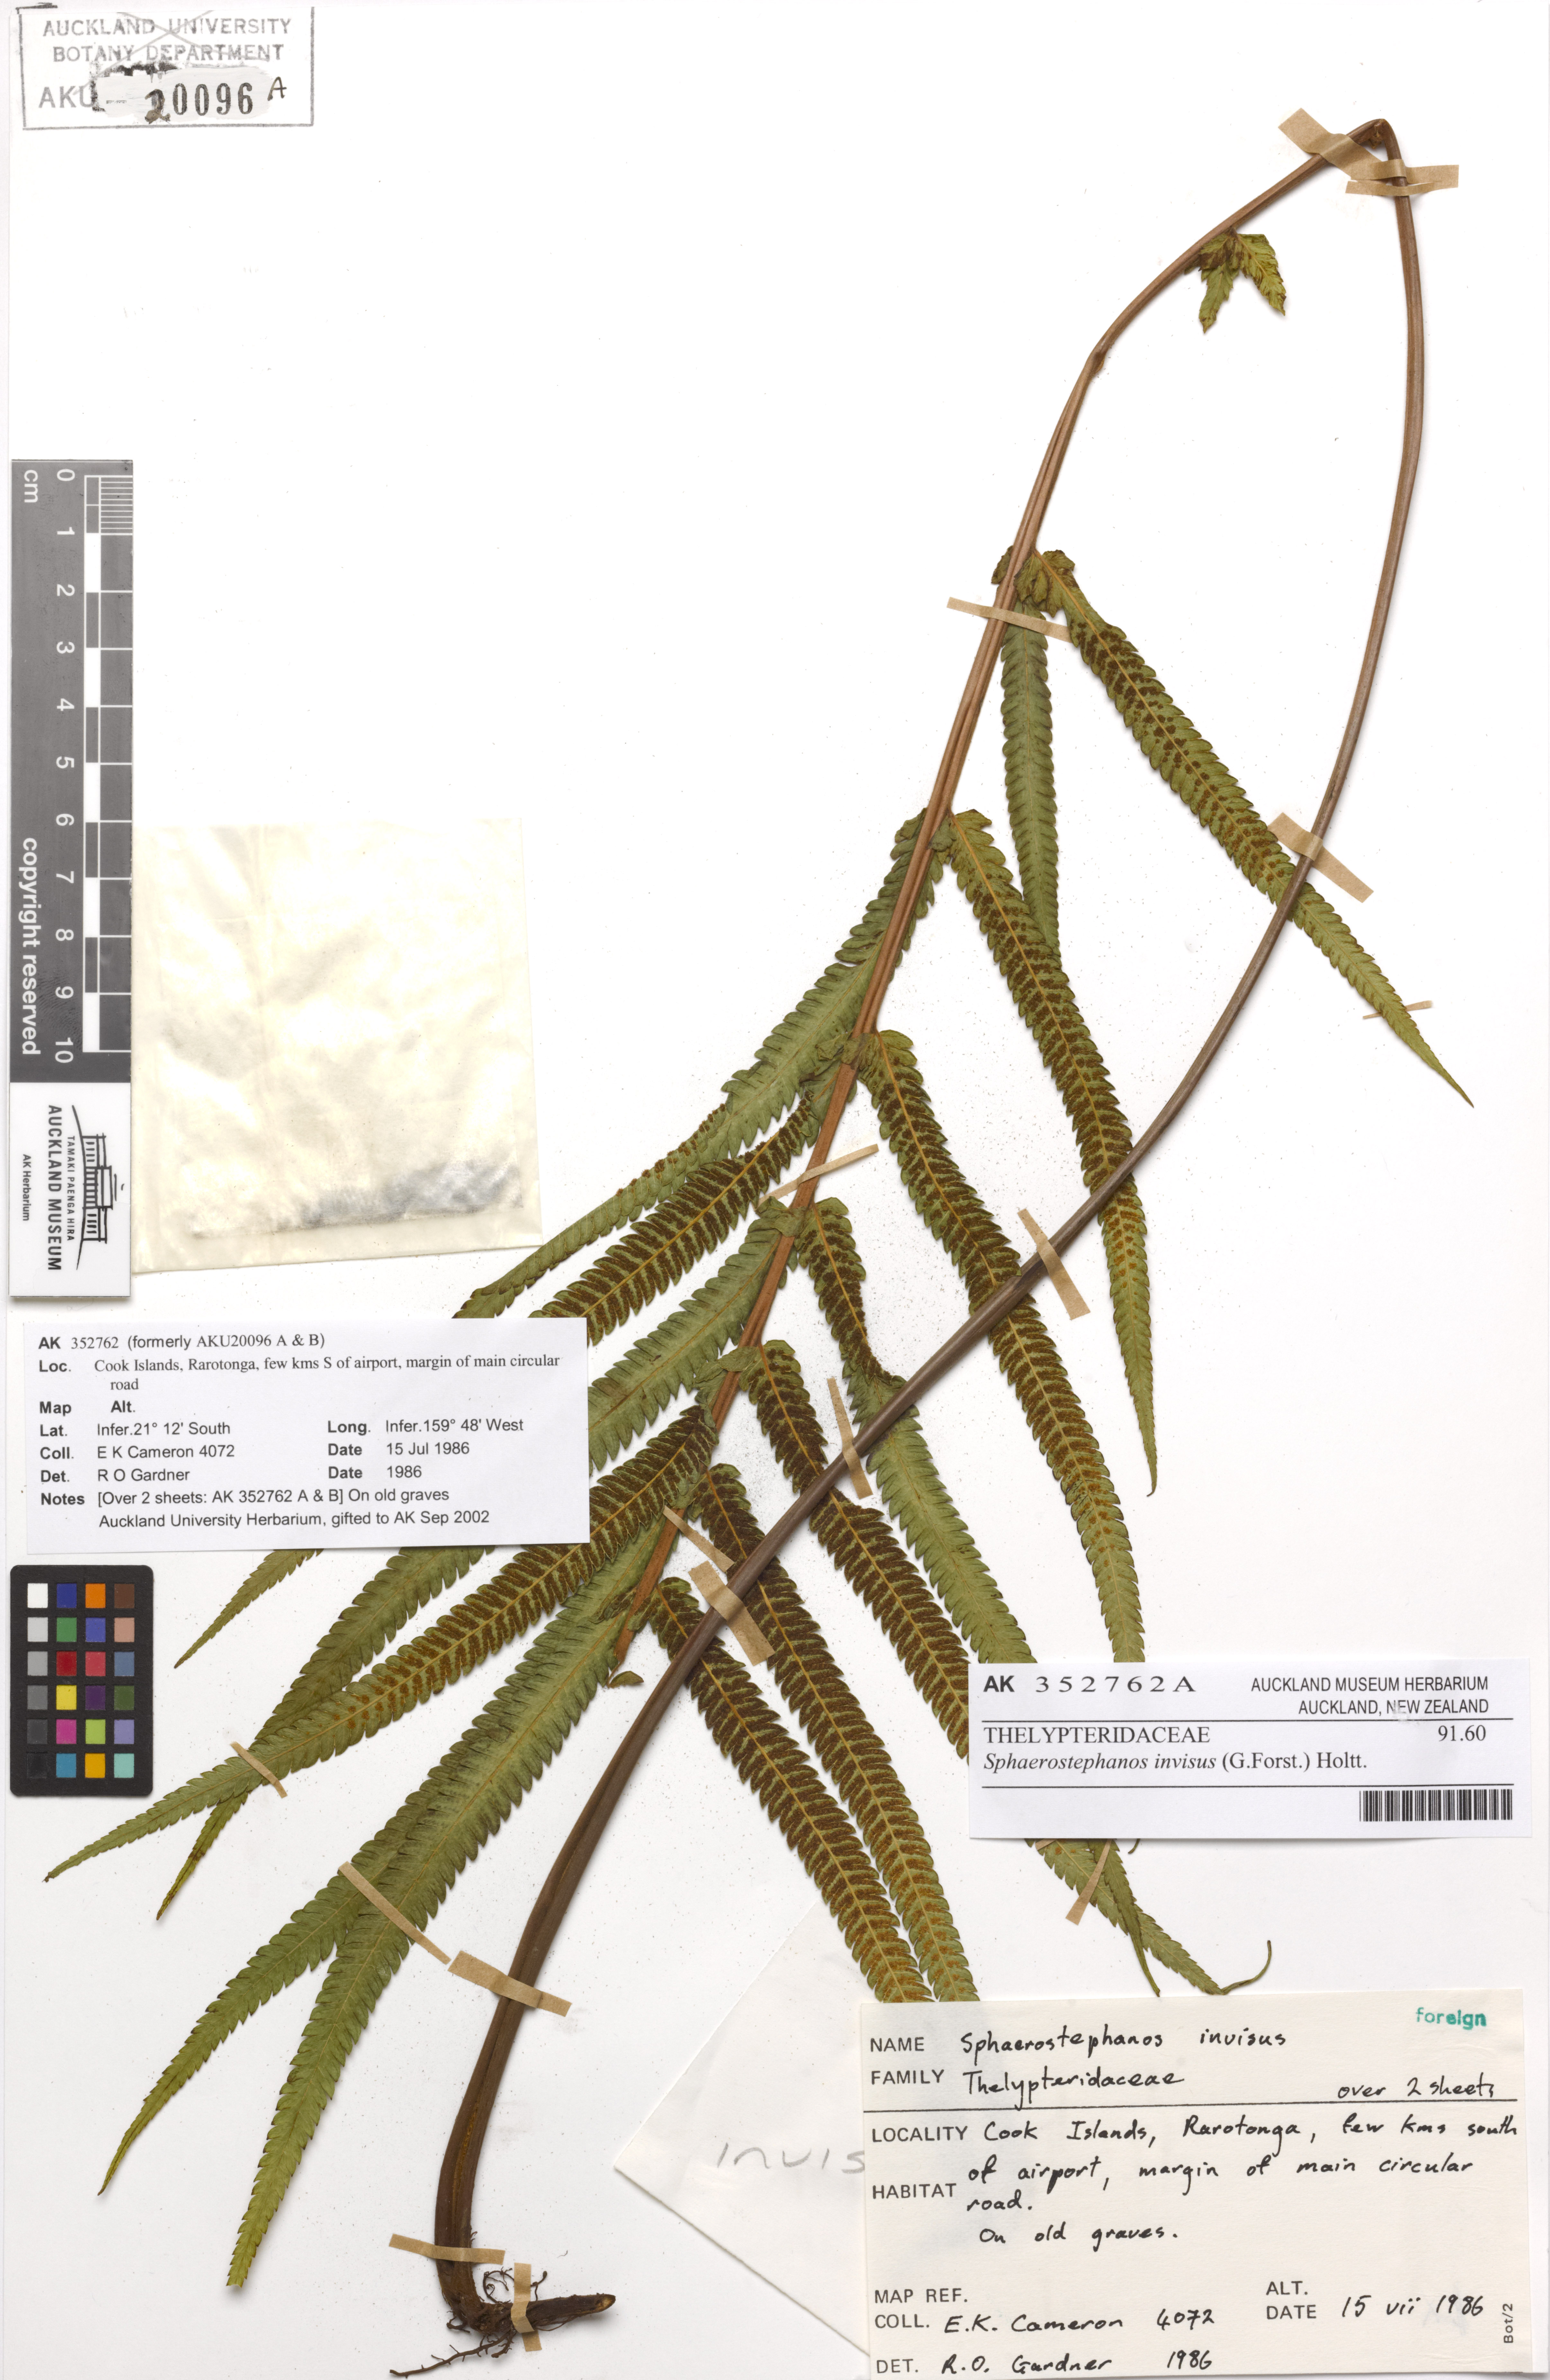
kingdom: Plantae
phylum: Tracheophyta
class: Polypodiopsida
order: Polypodiales
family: Thelypteridaceae
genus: Strophocaulon
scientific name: Strophocaulon invisum
